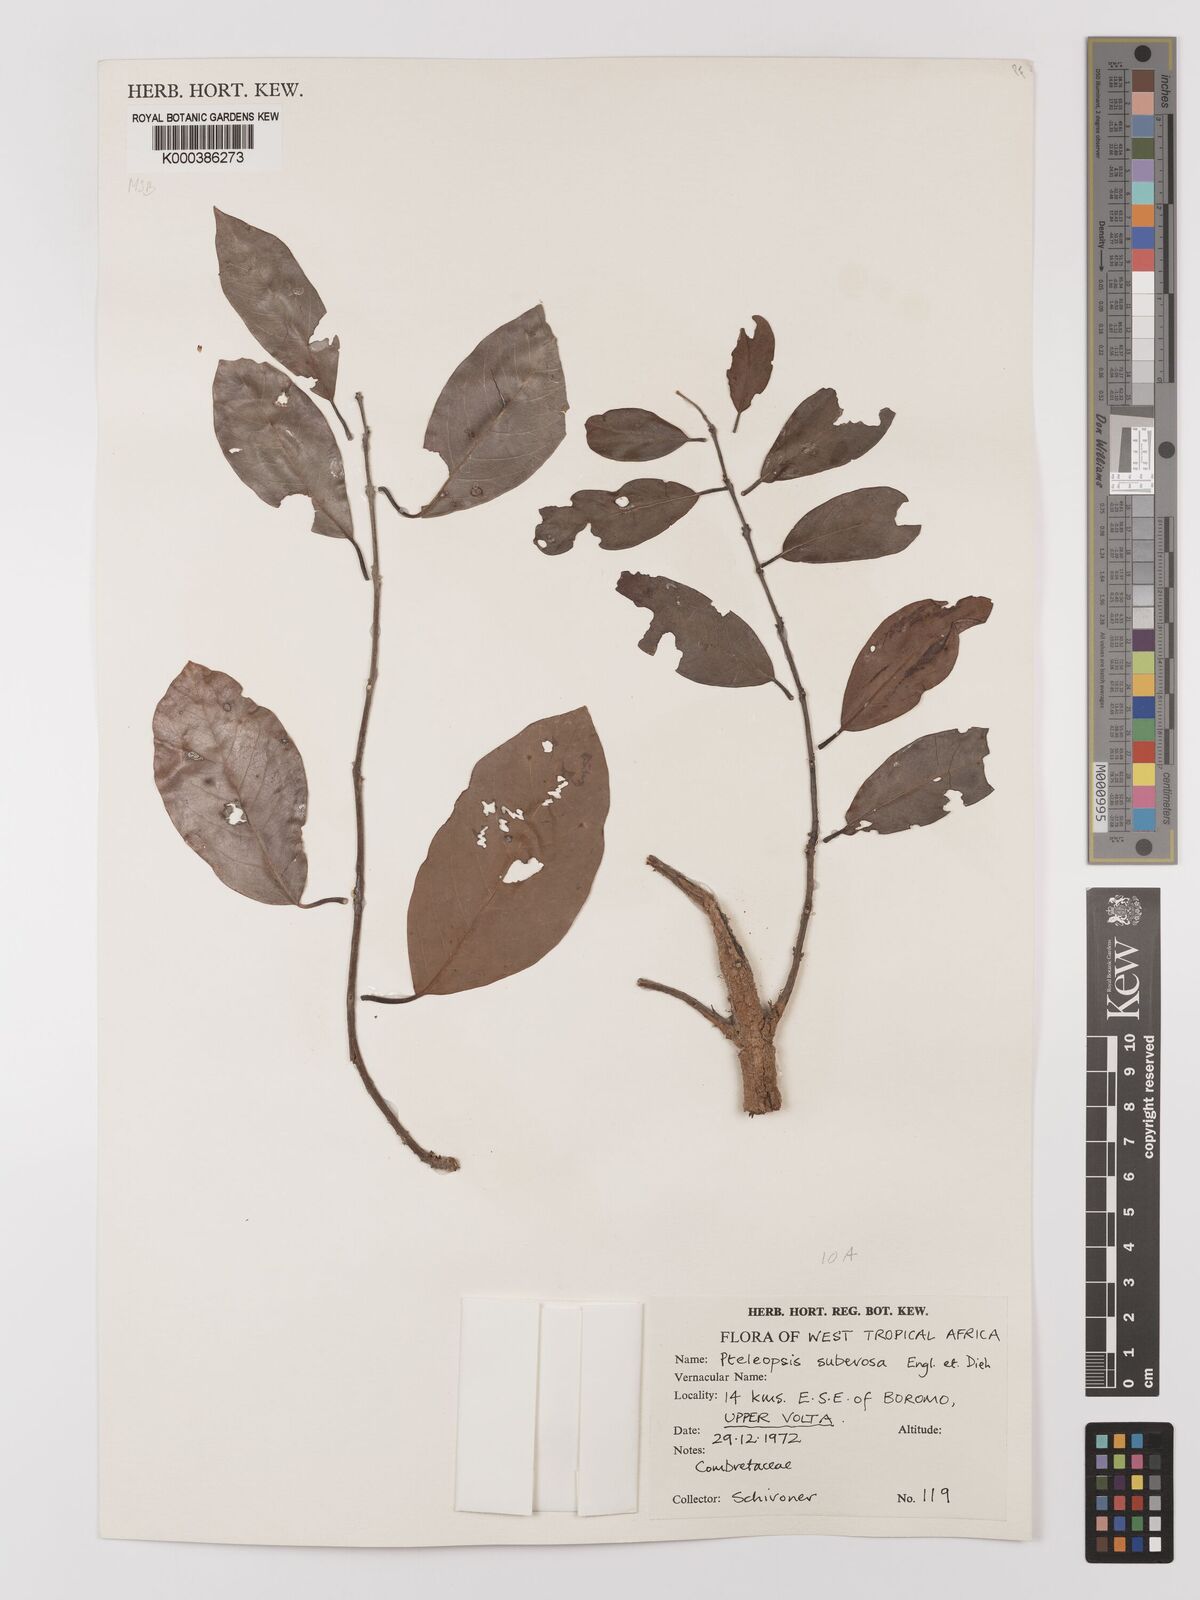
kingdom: Plantae
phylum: Tracheophyta
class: Magnoliopsida
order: Myrtales
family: Combretaceae
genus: Terminalia
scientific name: Terminalia engleri
